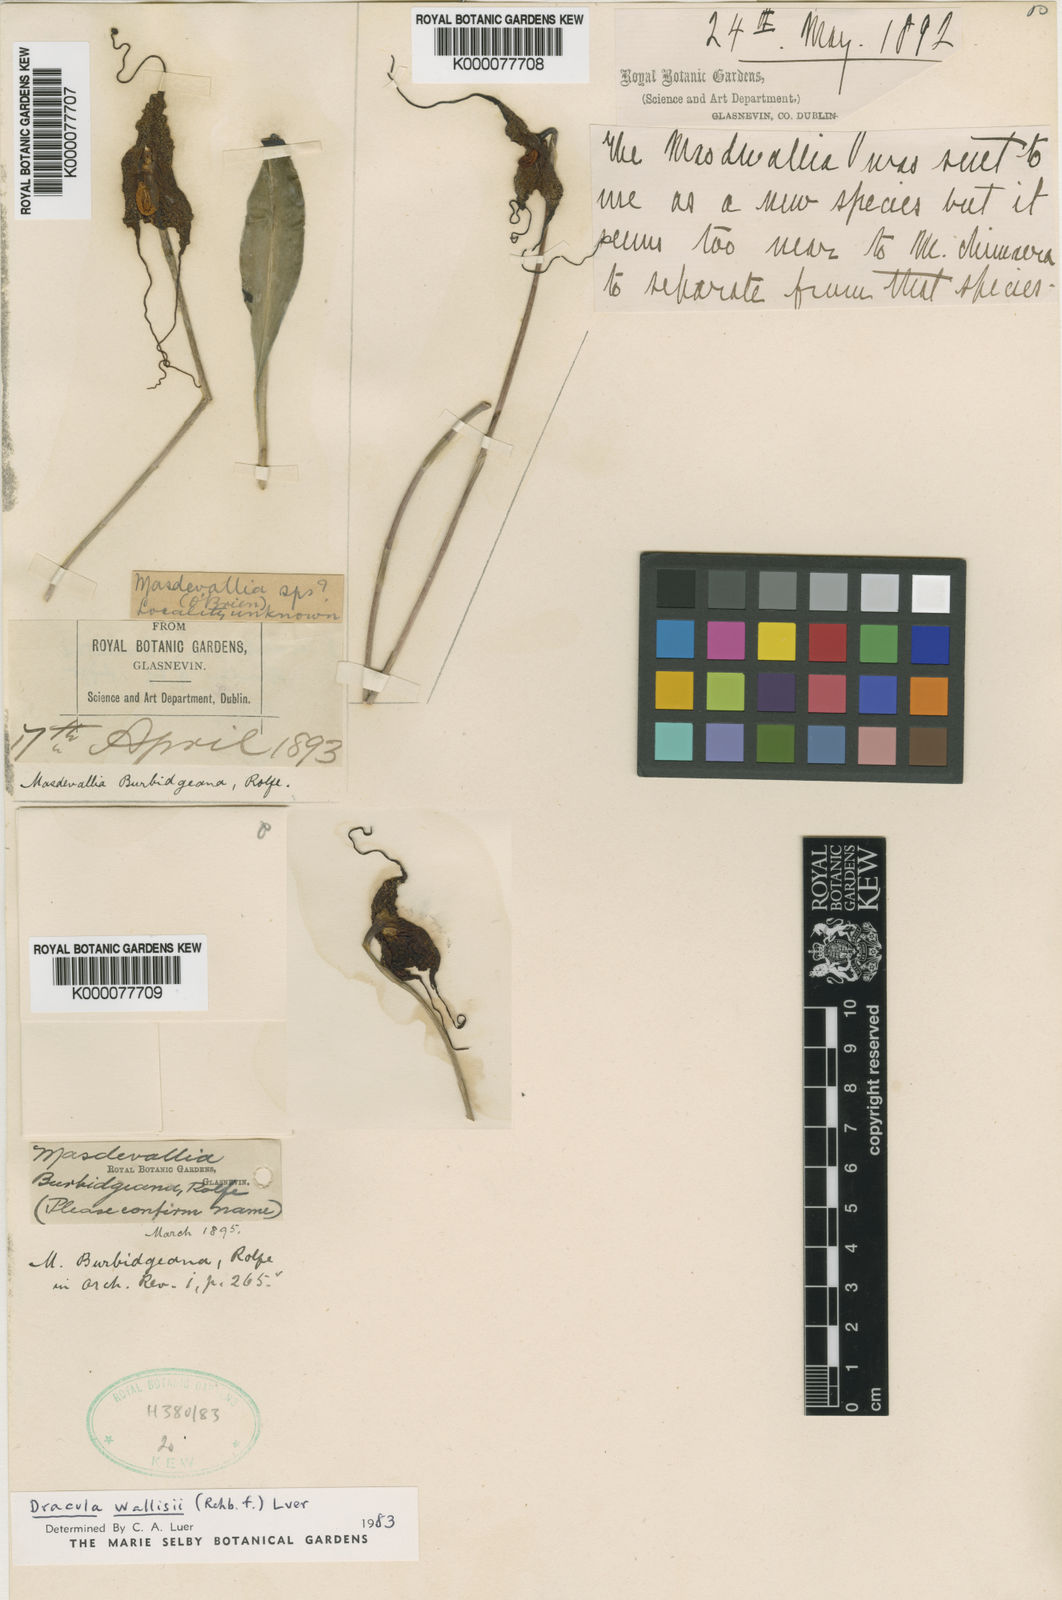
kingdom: Plantae
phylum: Tracheophyta
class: Liliopsida
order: Asparagales
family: Orchidaceae
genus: Dracula
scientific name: Dracula wallisii
